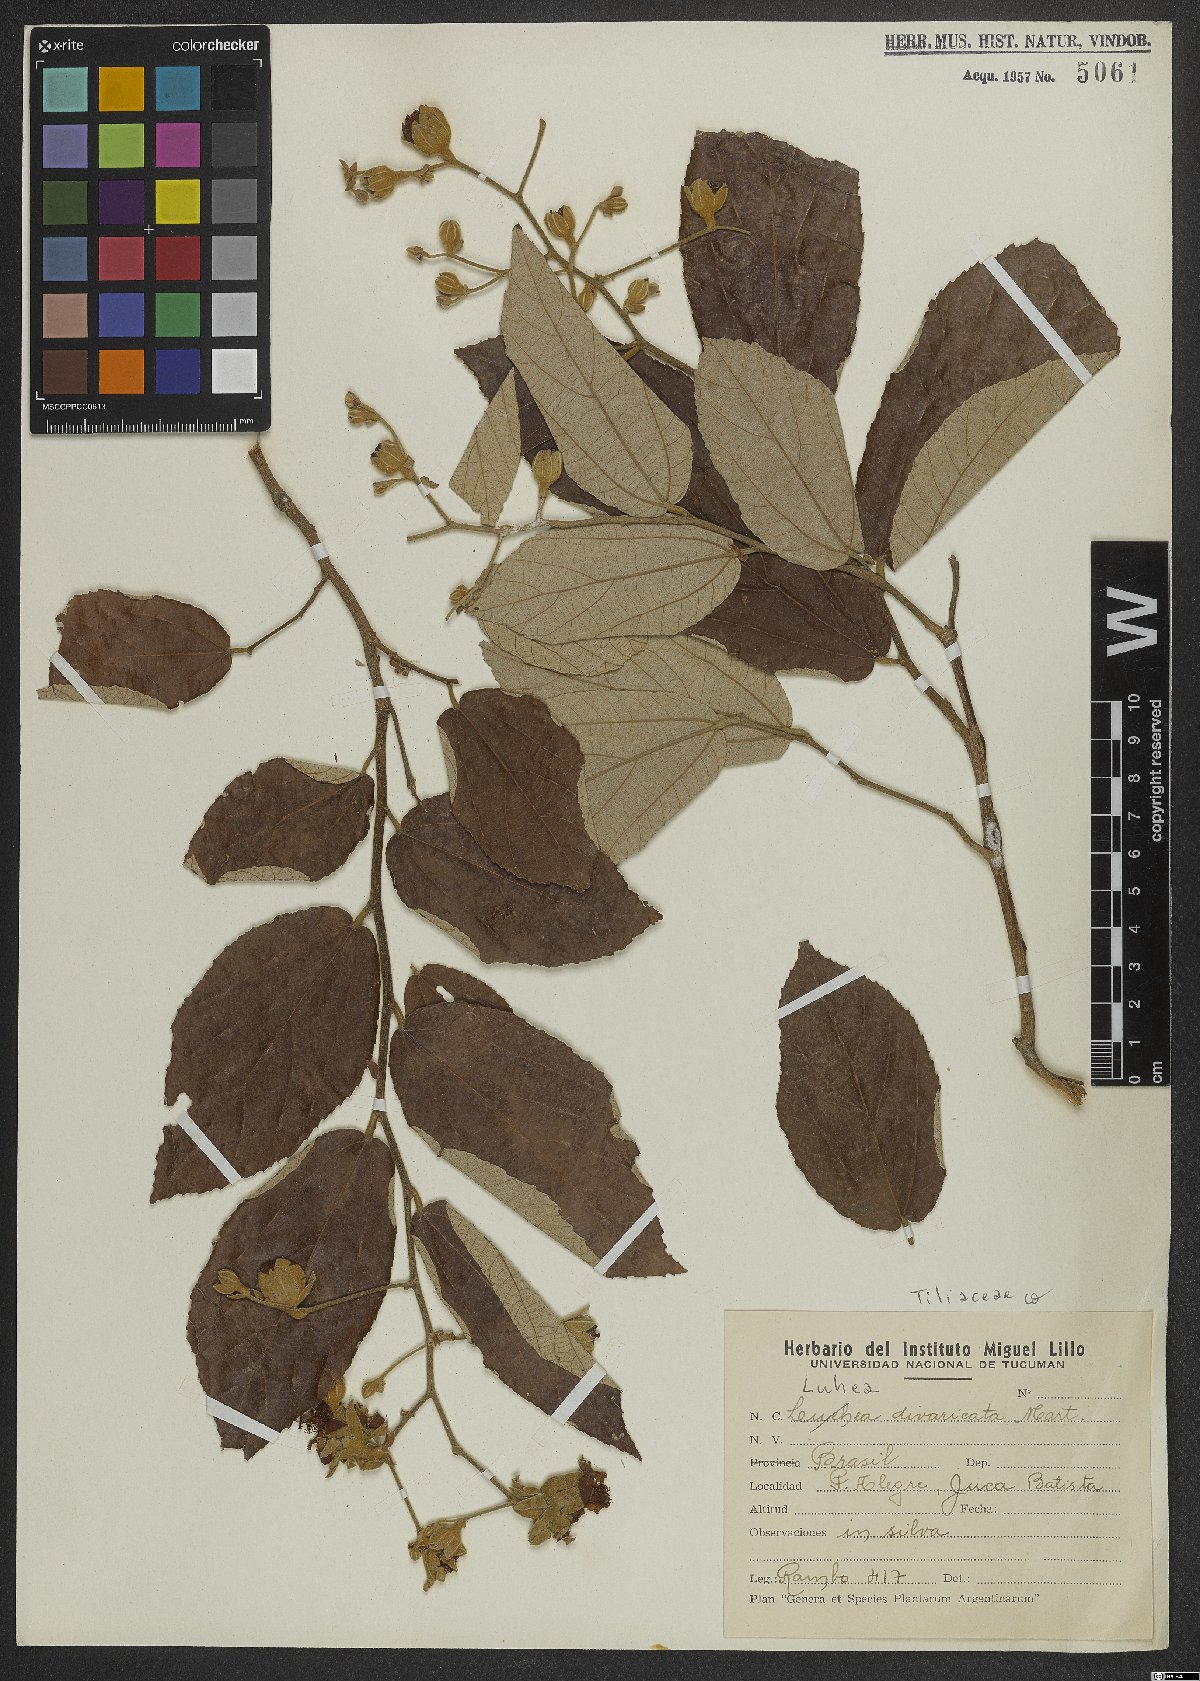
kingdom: Plantae
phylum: Tracheophyta
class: Magnoliopsida
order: Malvales
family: Malvaceae
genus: Luehea
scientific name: Luehea divaricata
